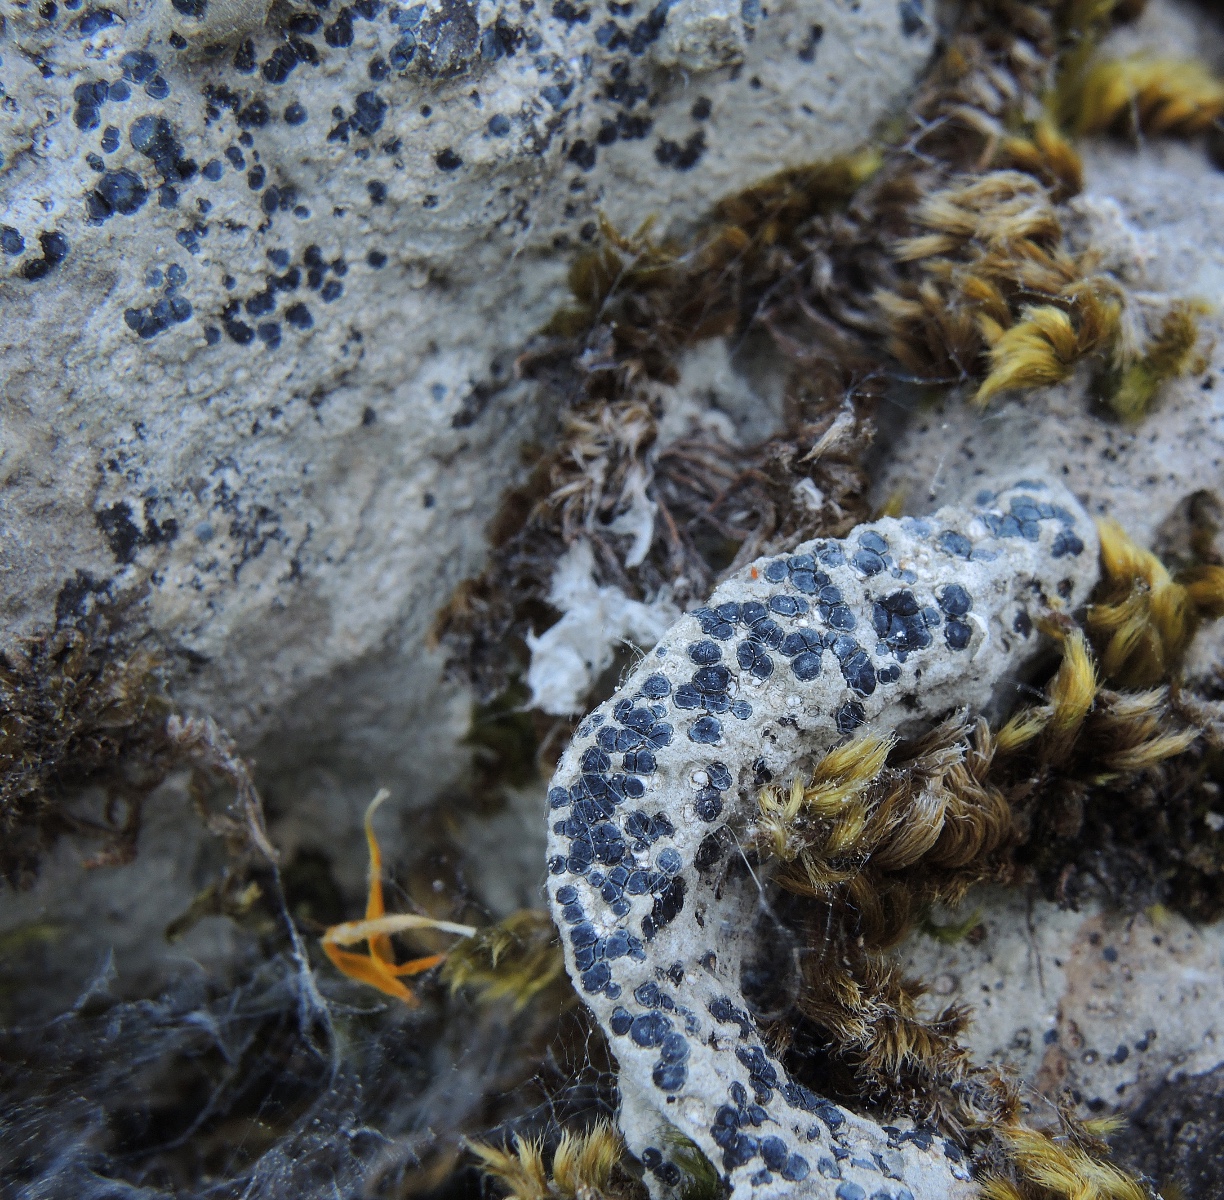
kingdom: Fungi
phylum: Ascomycota
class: Lecanoromycetes
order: Acarosporales
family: Acarosporaceae
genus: Sarcogyne
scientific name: Sarcogyne regularis
